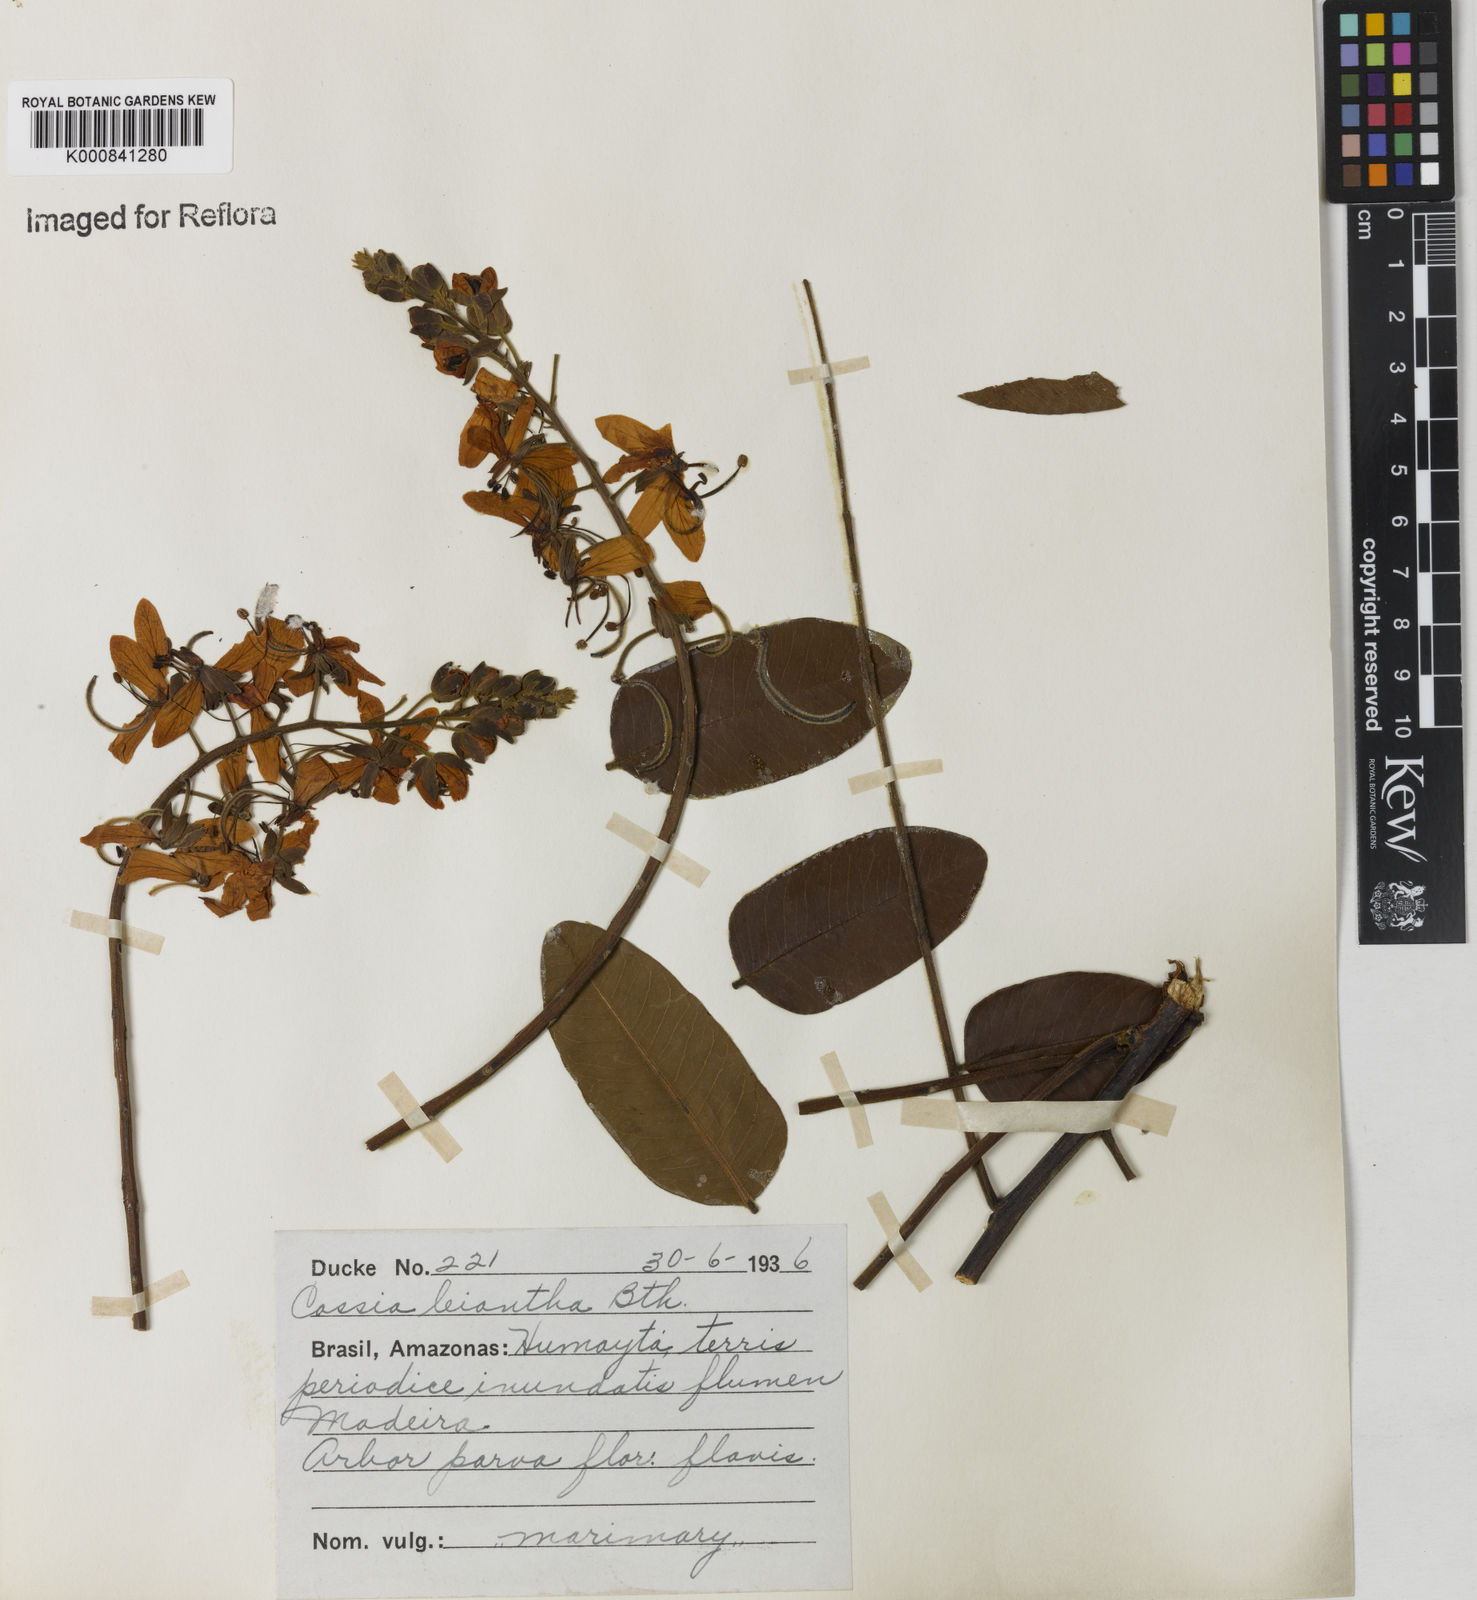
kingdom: Plantae
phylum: Tracheophyta
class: Magnoliopsida
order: Fabales
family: Fabaceae
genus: Cassia
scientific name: Cassia leiandra
